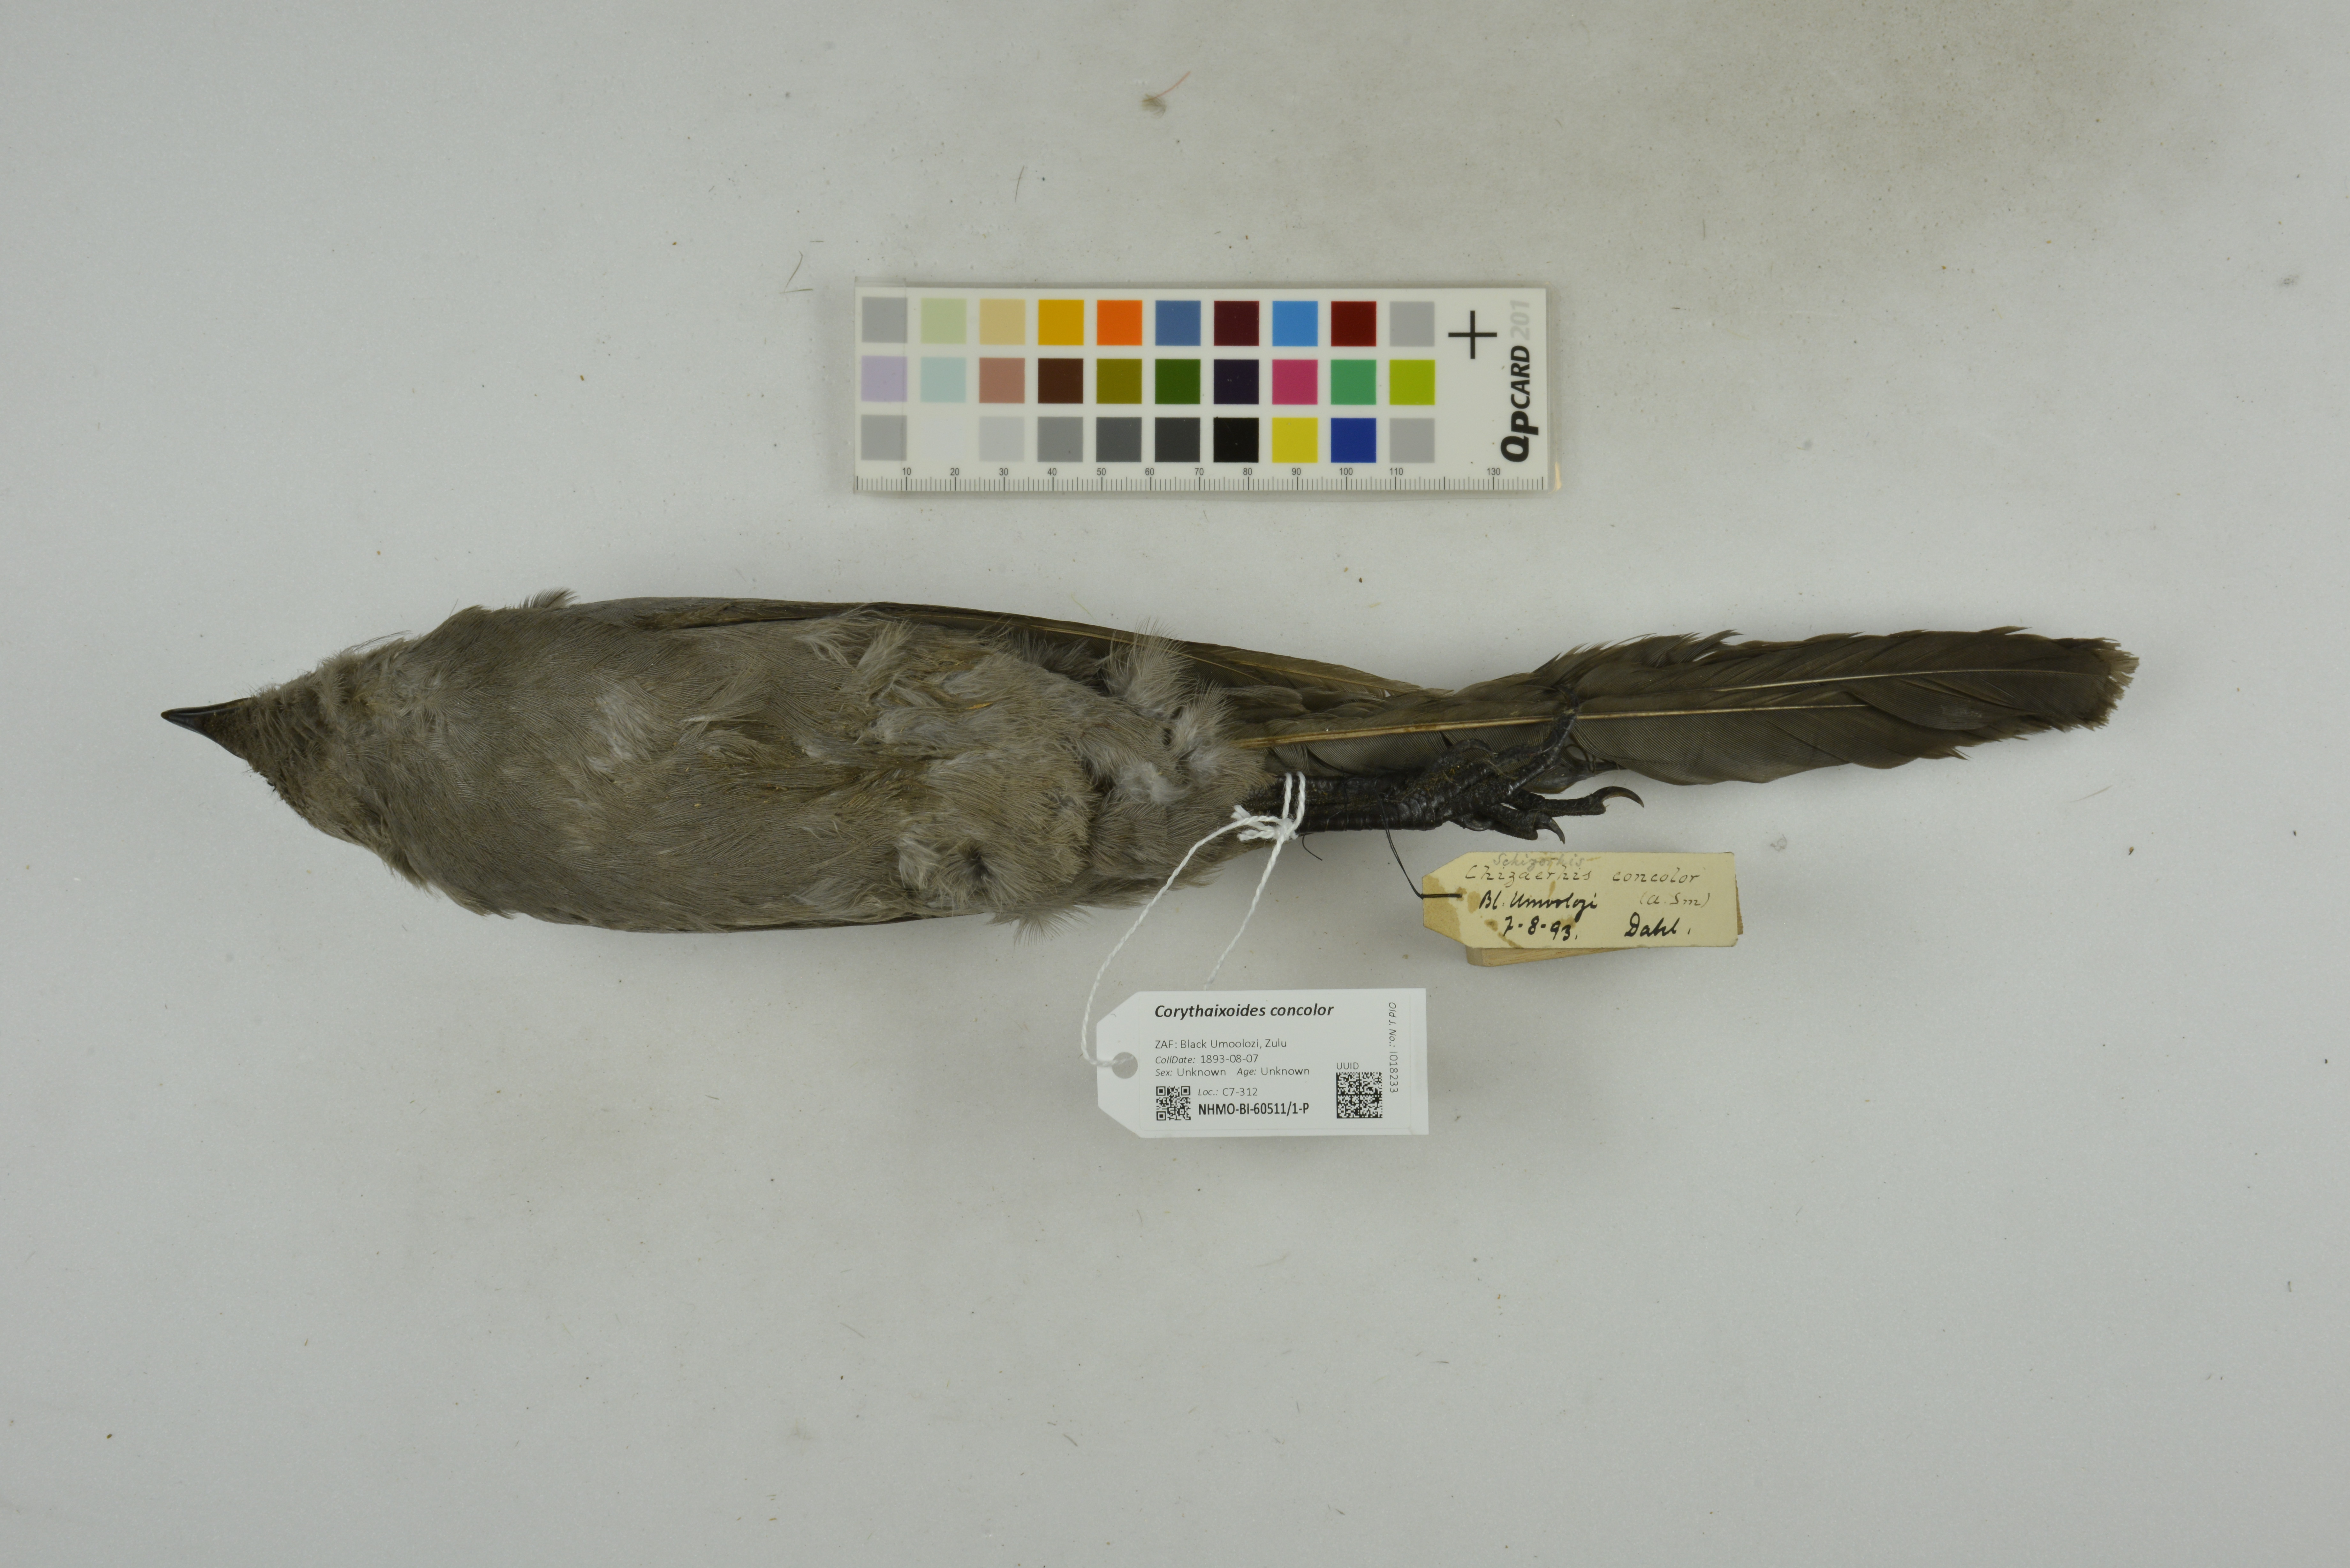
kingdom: Animalia
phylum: Chordata
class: Aves
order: Musophagiformes
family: Musophagidae
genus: Corythaixoides
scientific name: Corythaixoides concolor
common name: Grey go-away-bird
